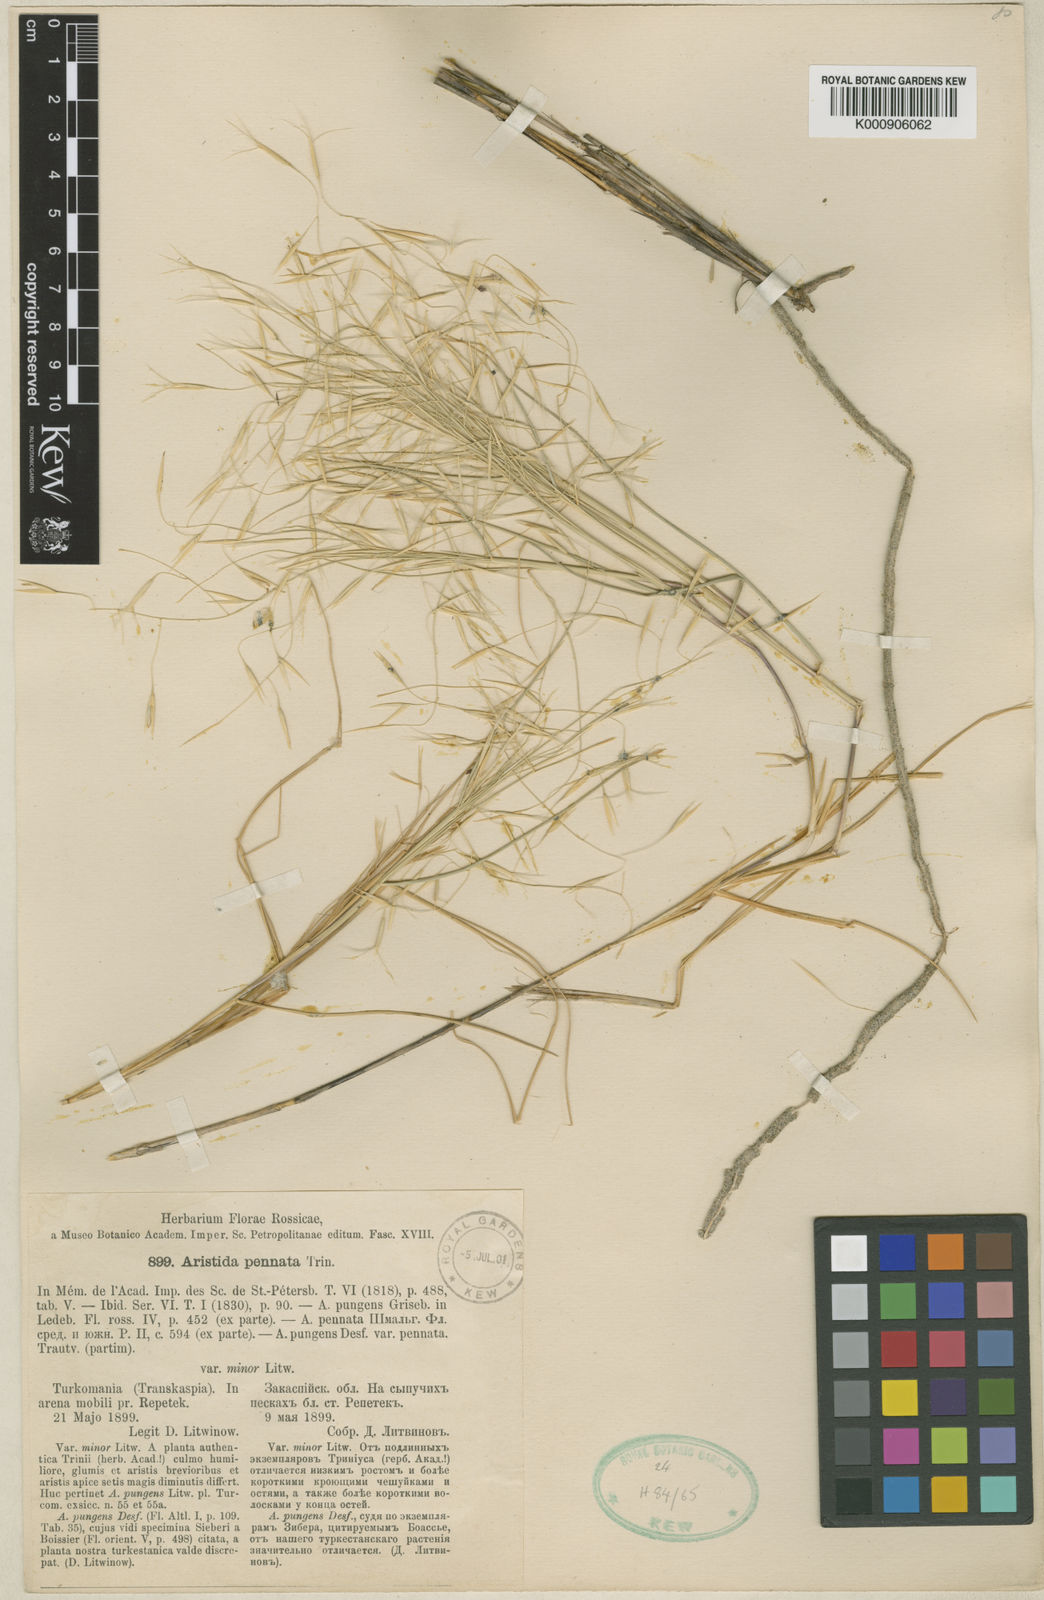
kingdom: Plantae
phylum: Tracheophyta
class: Liliopsida
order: Poales
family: Poaceae
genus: Stipagrostis
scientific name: Stipagrostis pennata
